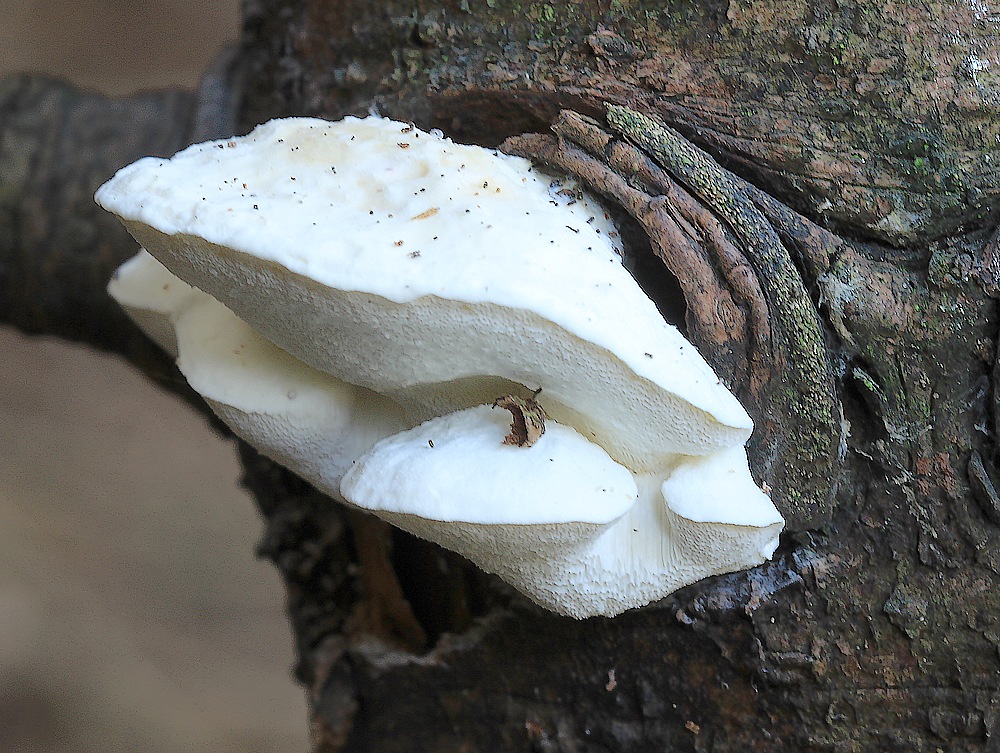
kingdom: Fungi
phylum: Basidiomycota
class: Agaricomycetes
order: Polyporales
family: Fomitopsidaceae
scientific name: Fomitopsidaceae
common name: hovporesvampfamilien
